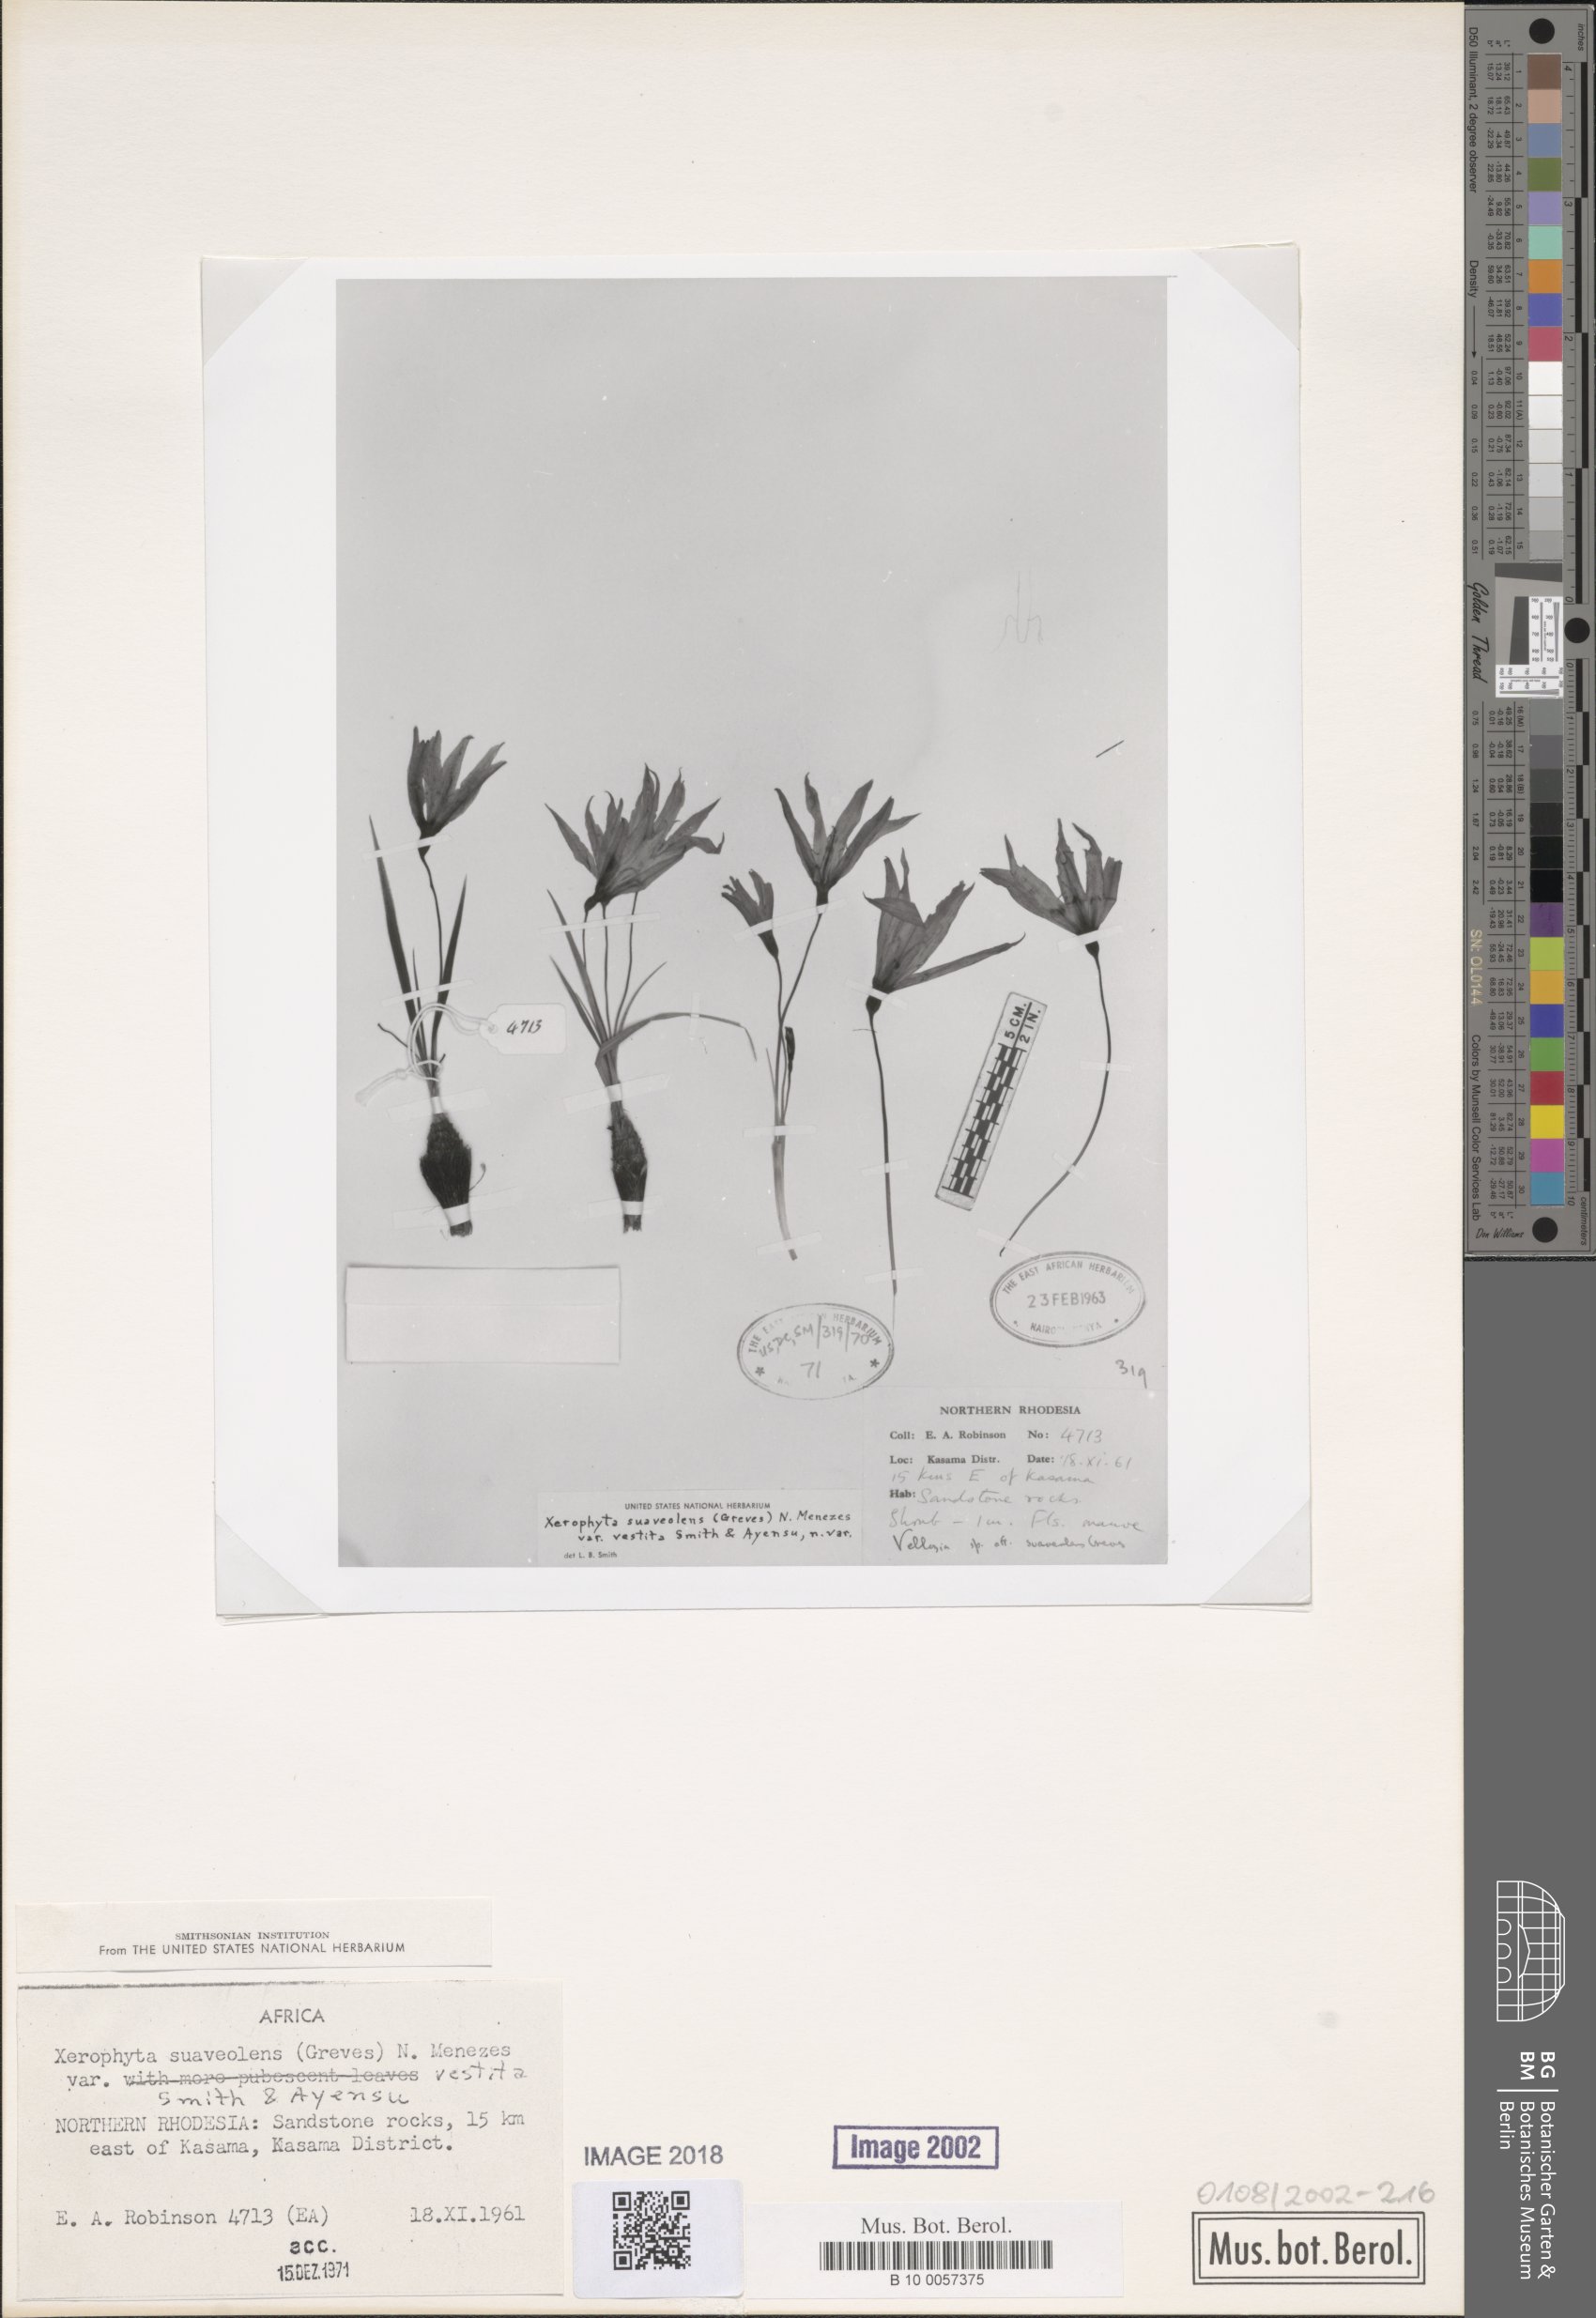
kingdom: Plantae
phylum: Tracheophyta
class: Liliopsida
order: Pandanales
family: Velloziaceae
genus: Xerophyta
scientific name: Xerophyta suaveolens
